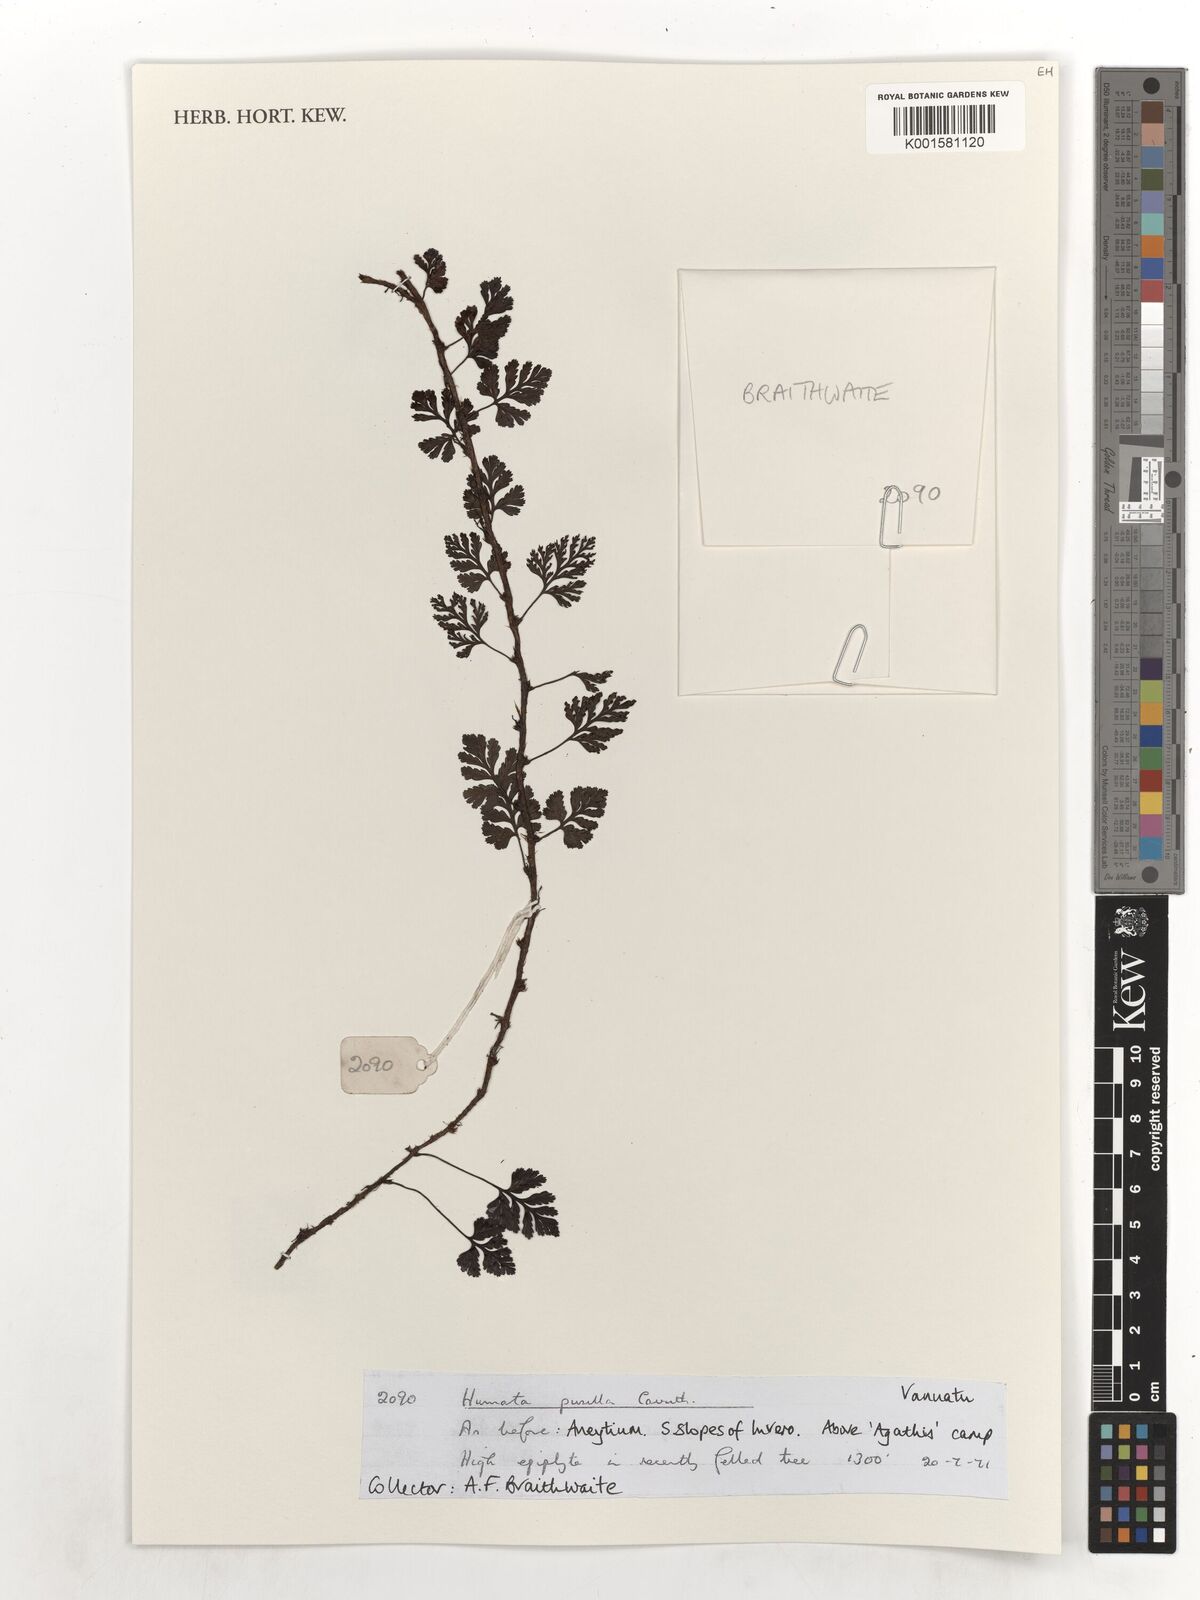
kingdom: Plantae
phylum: Tracheophyta
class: Polypodiopsida
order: Polypodiales
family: Davalliaceae
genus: Davallia
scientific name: Davallia pusilla
